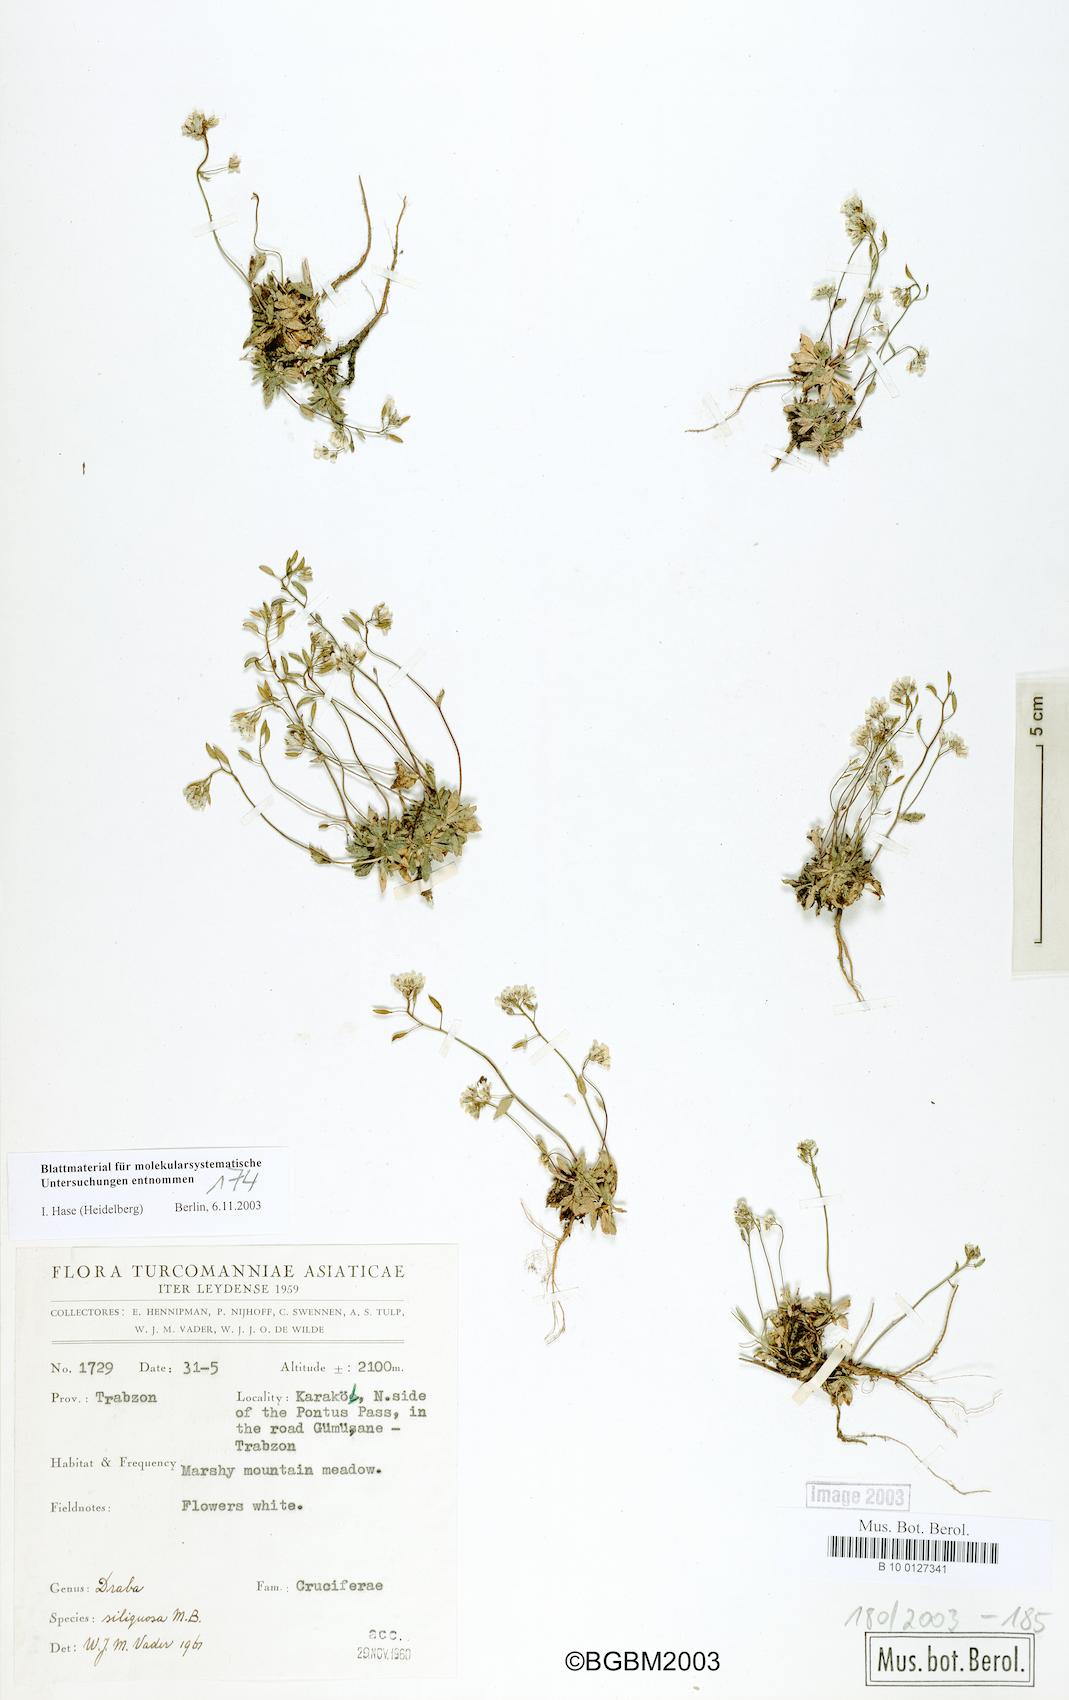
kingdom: Plantae
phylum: Tracheophyta
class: Magnoliopsida
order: Brassicales
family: Brassicaceae
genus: Draba
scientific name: Draba siliquosa
